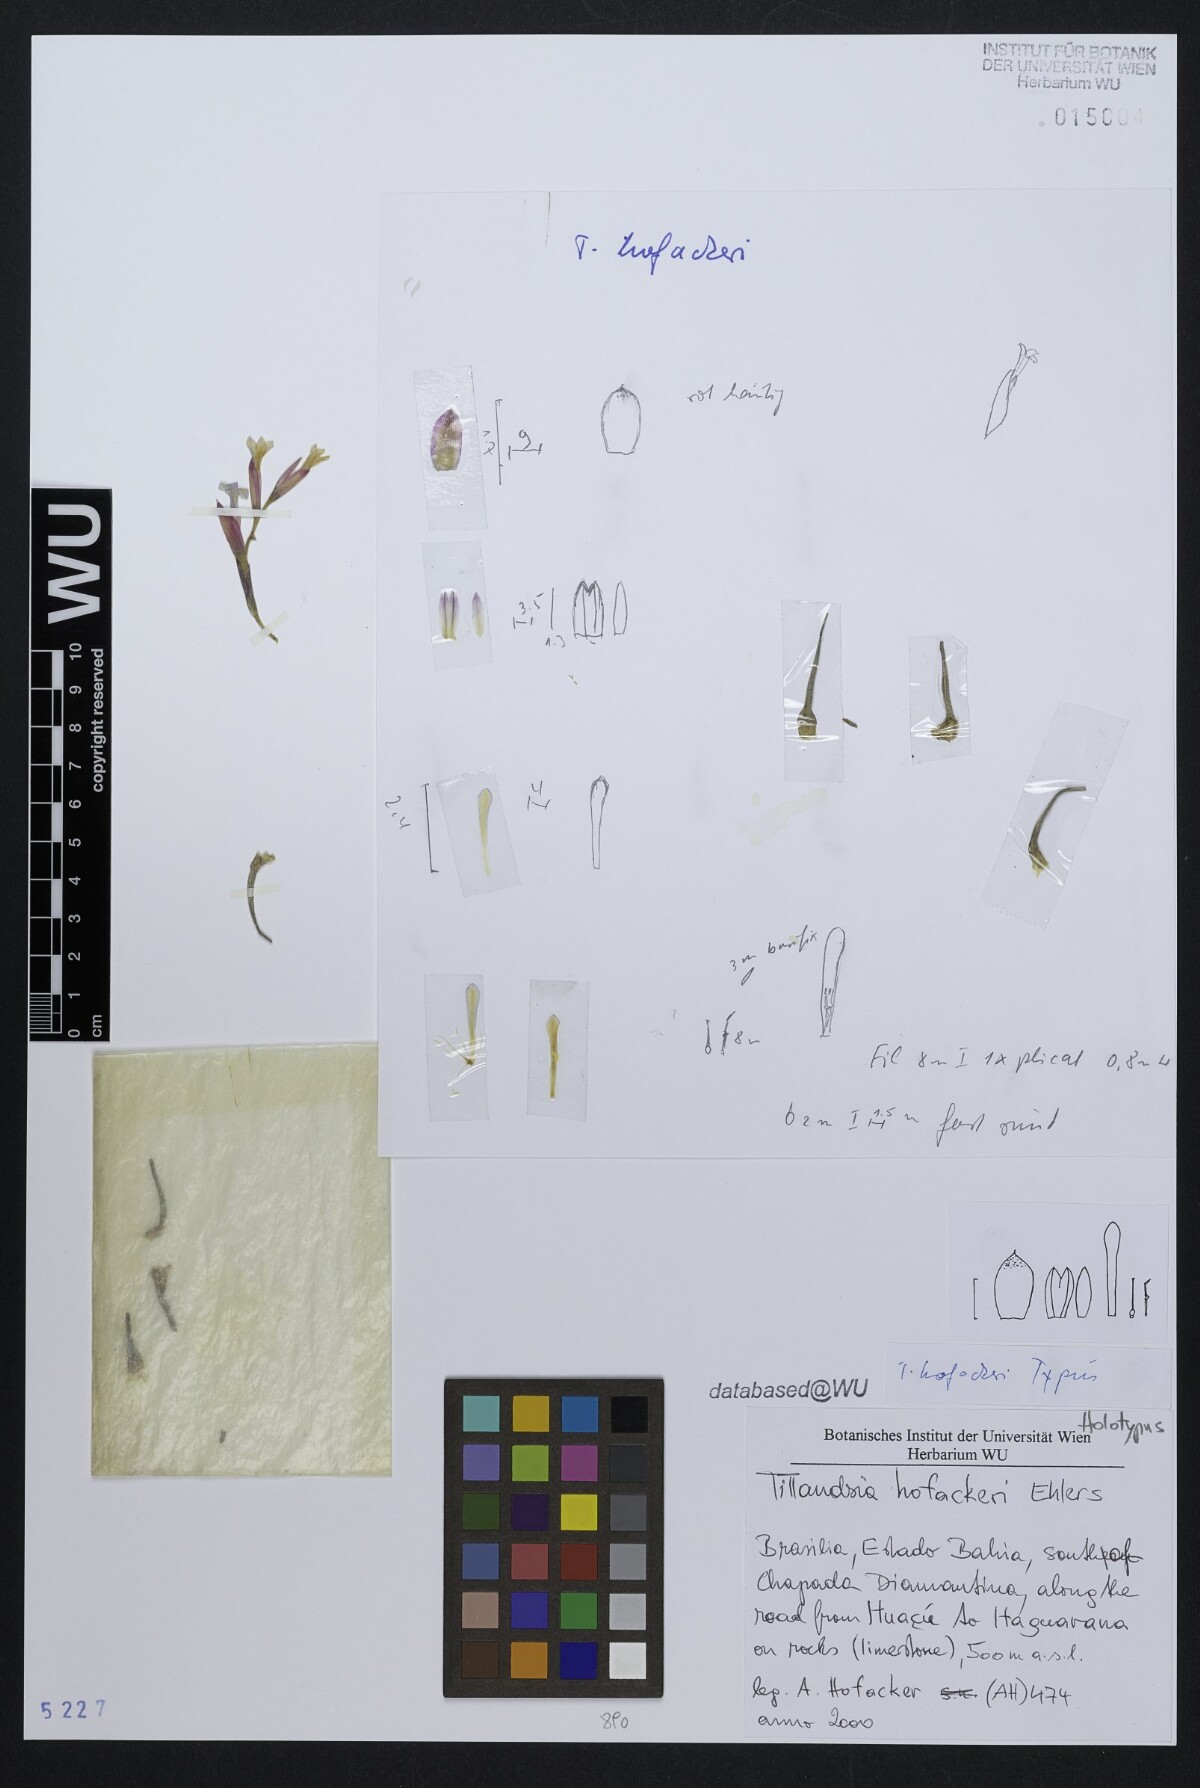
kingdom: Plantae
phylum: Tracheophyta
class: Liliopsida
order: Poales
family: Bromeliaceae
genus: Tillandsia
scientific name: Tillandsia hofackeri
